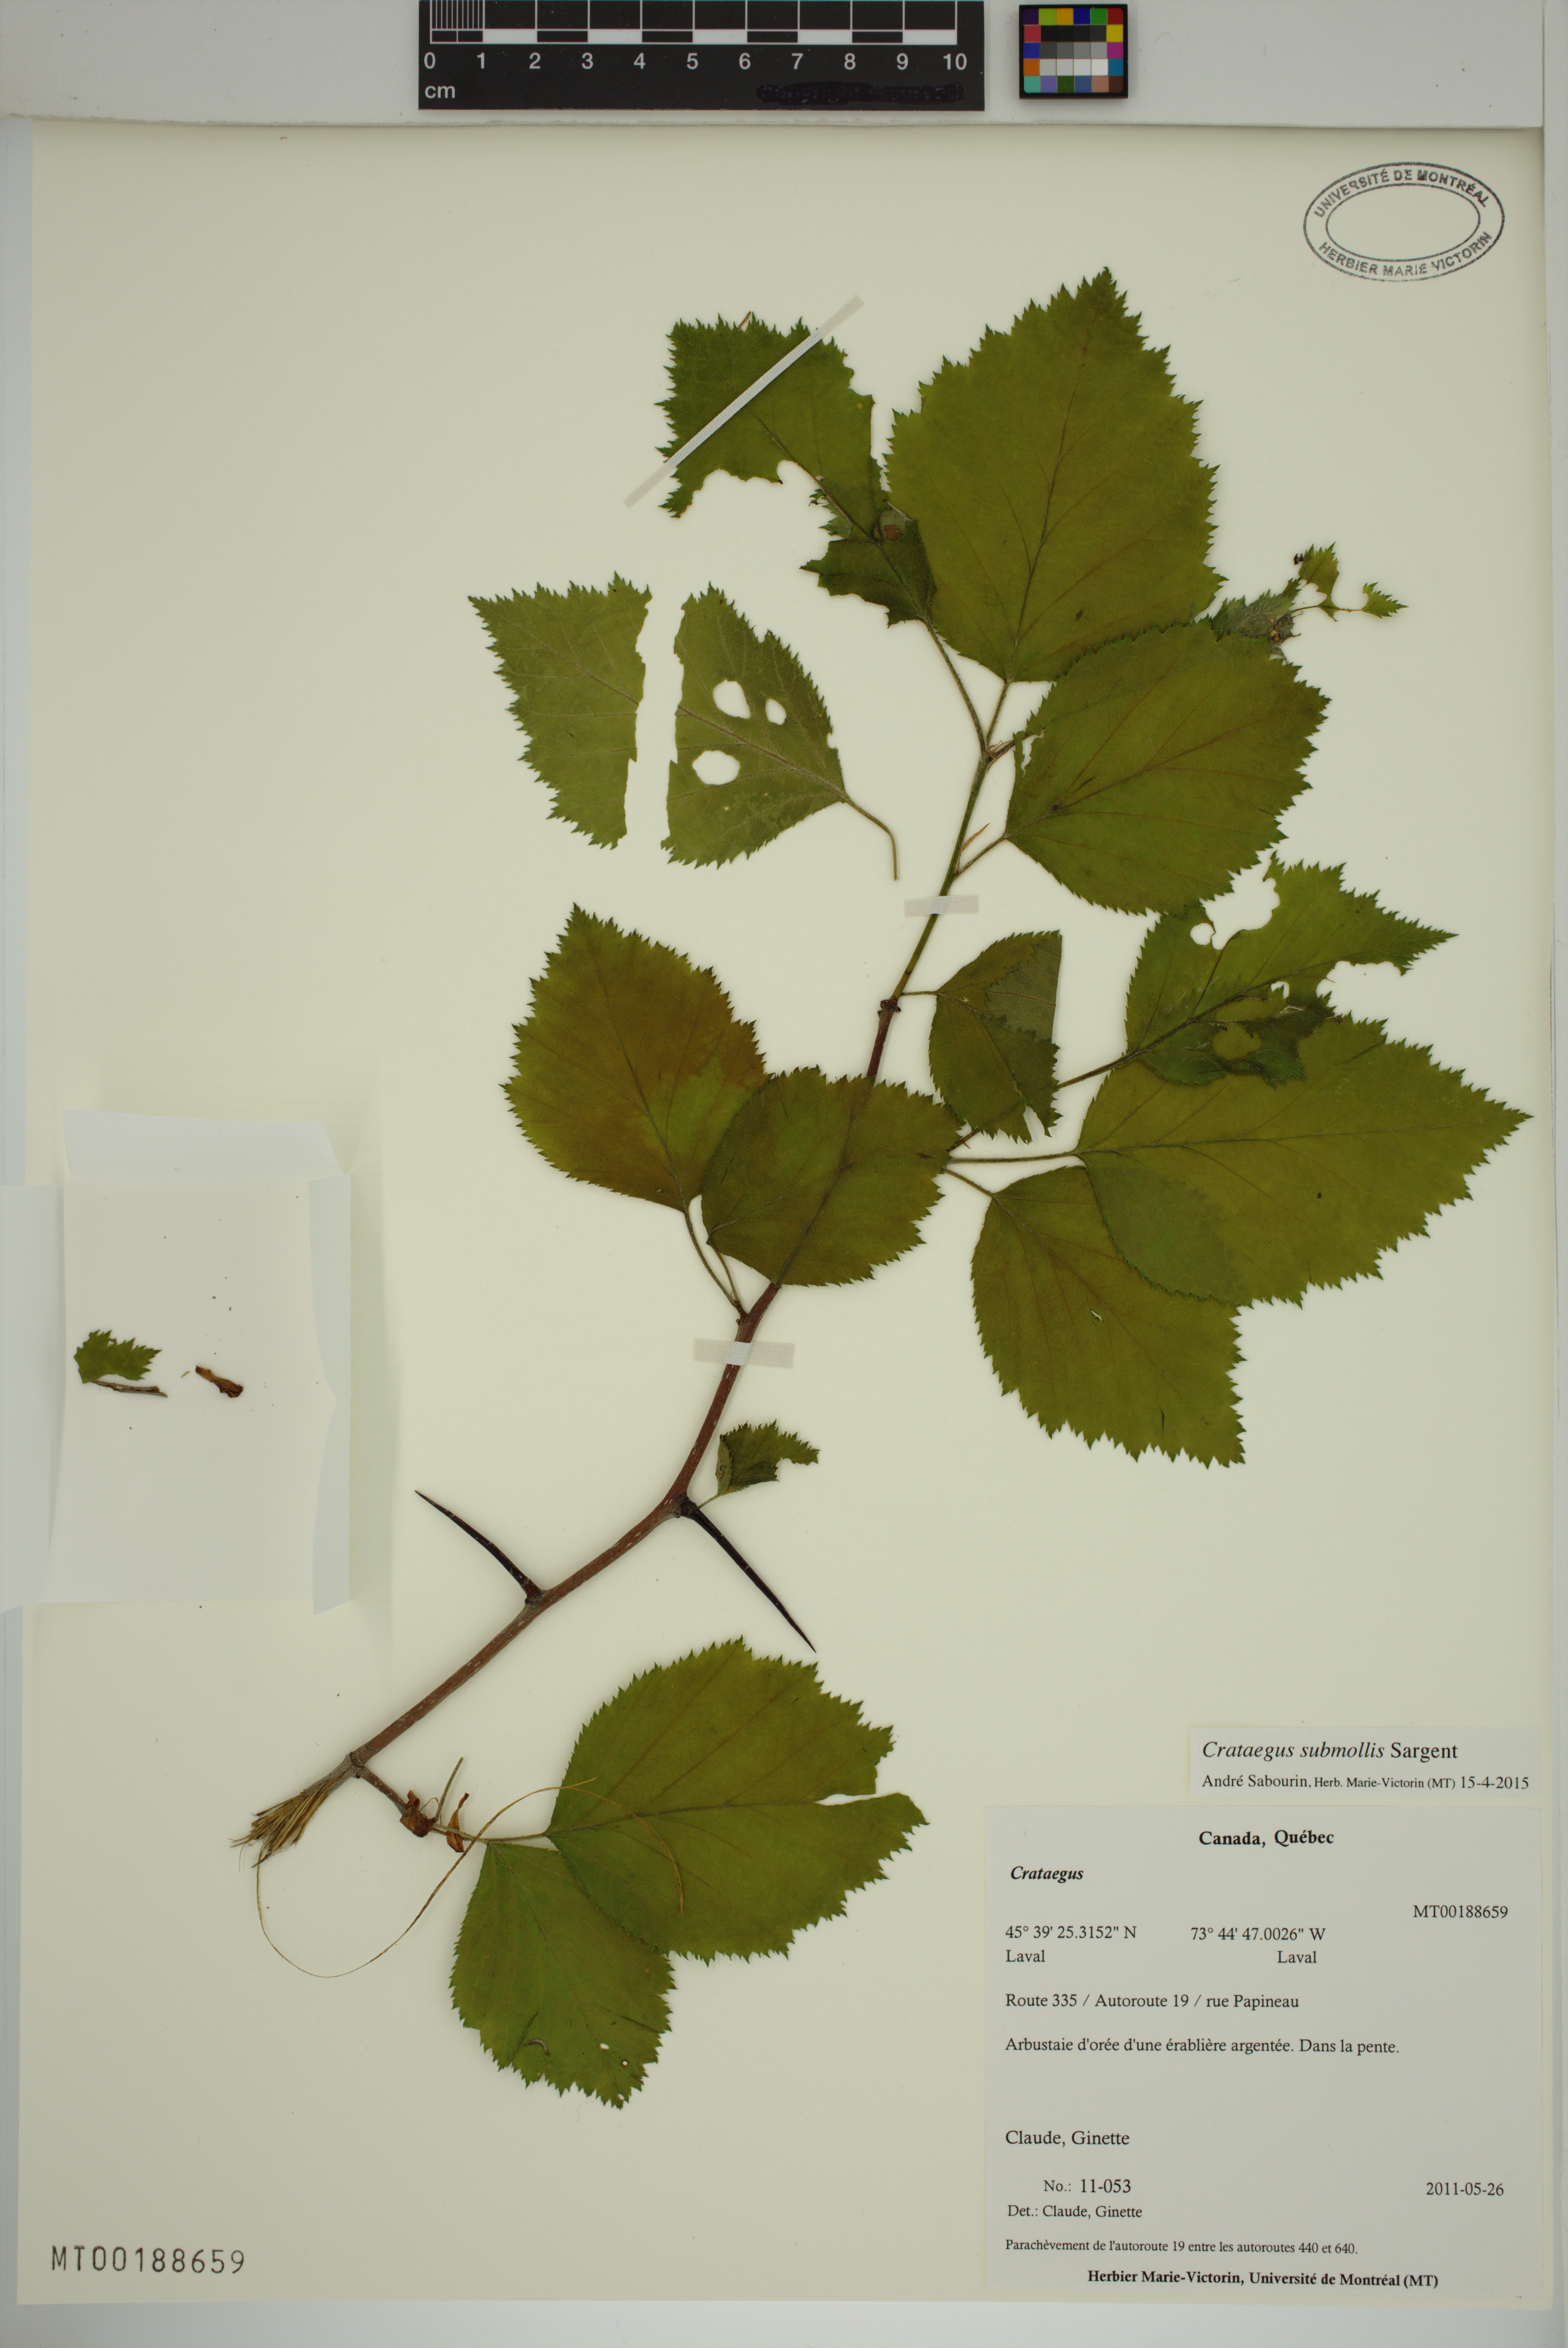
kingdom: Plantae
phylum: Tracheophyta
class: Magnoliopsida
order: Rosales
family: Rosaceae
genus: Crataegus
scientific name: Crataegus submollis
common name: Hairy cockspurthorn
